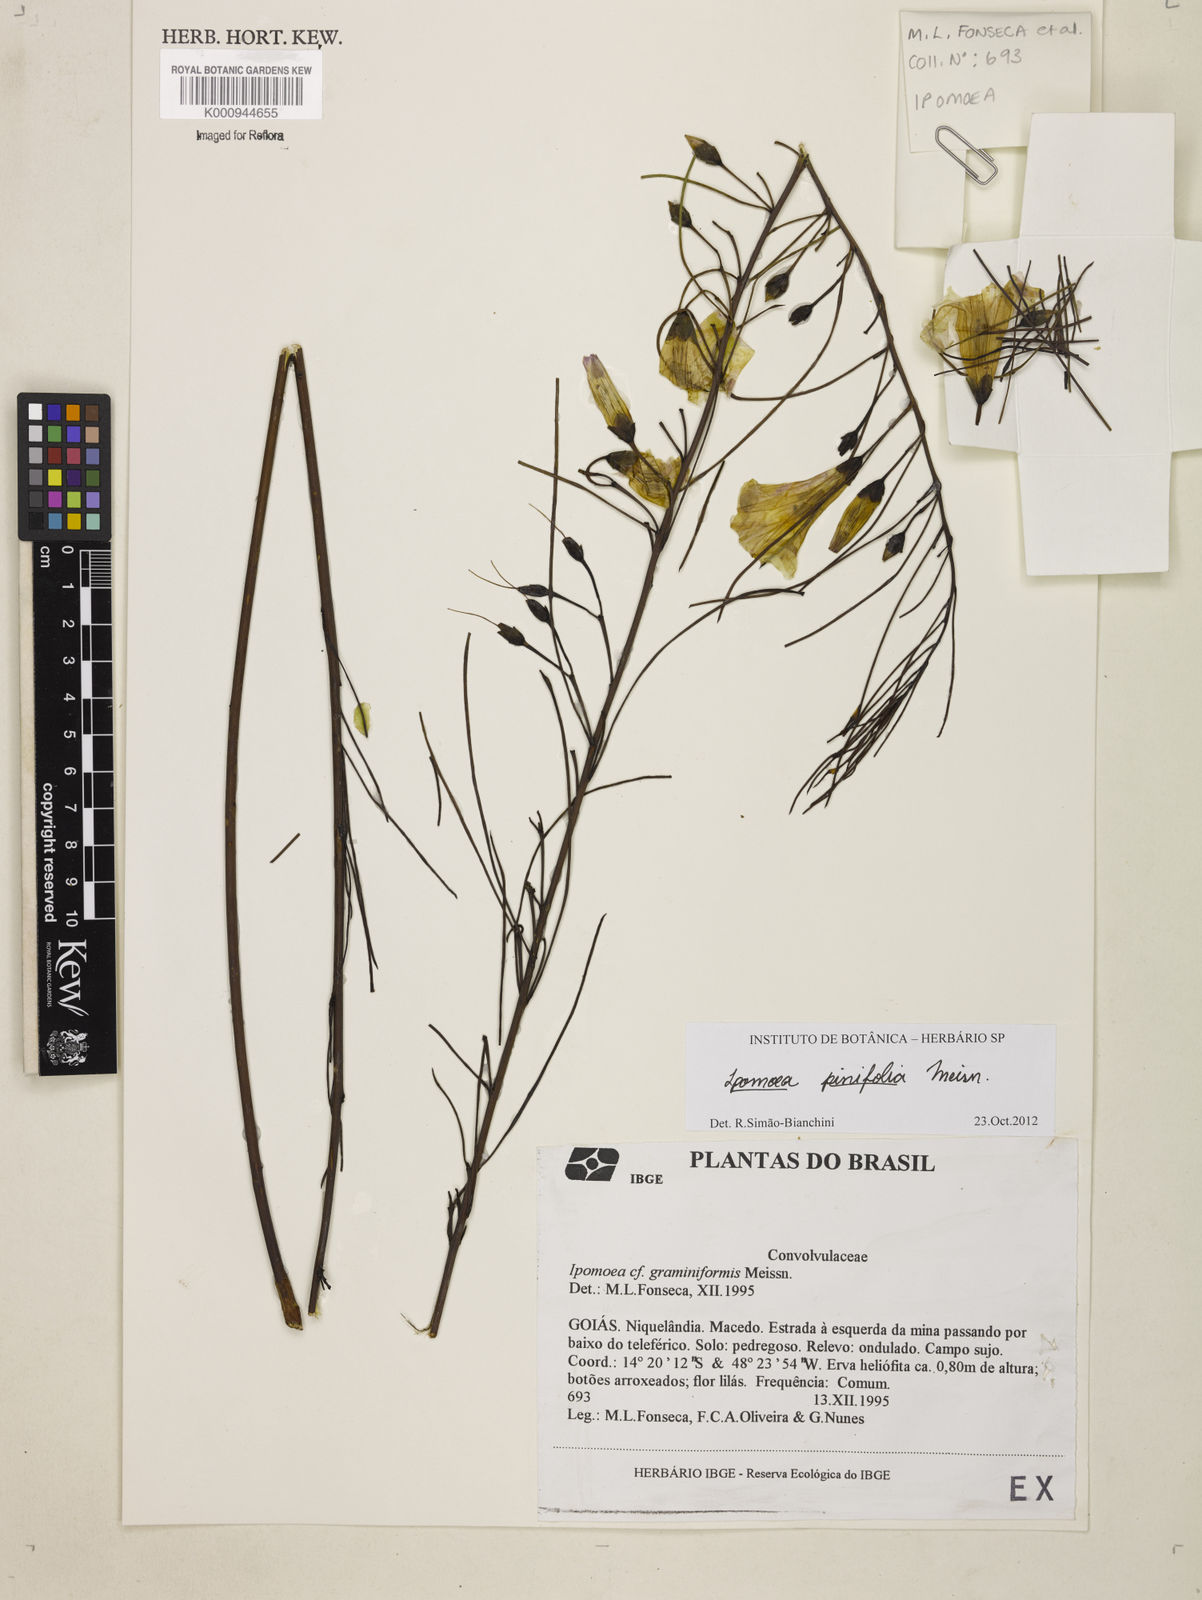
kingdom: Plantae
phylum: Tracheophyta
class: Magnoliopsida
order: Solanales
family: Convolvulaceae
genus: Ipomoea
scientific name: Ipomoea pinifolia
